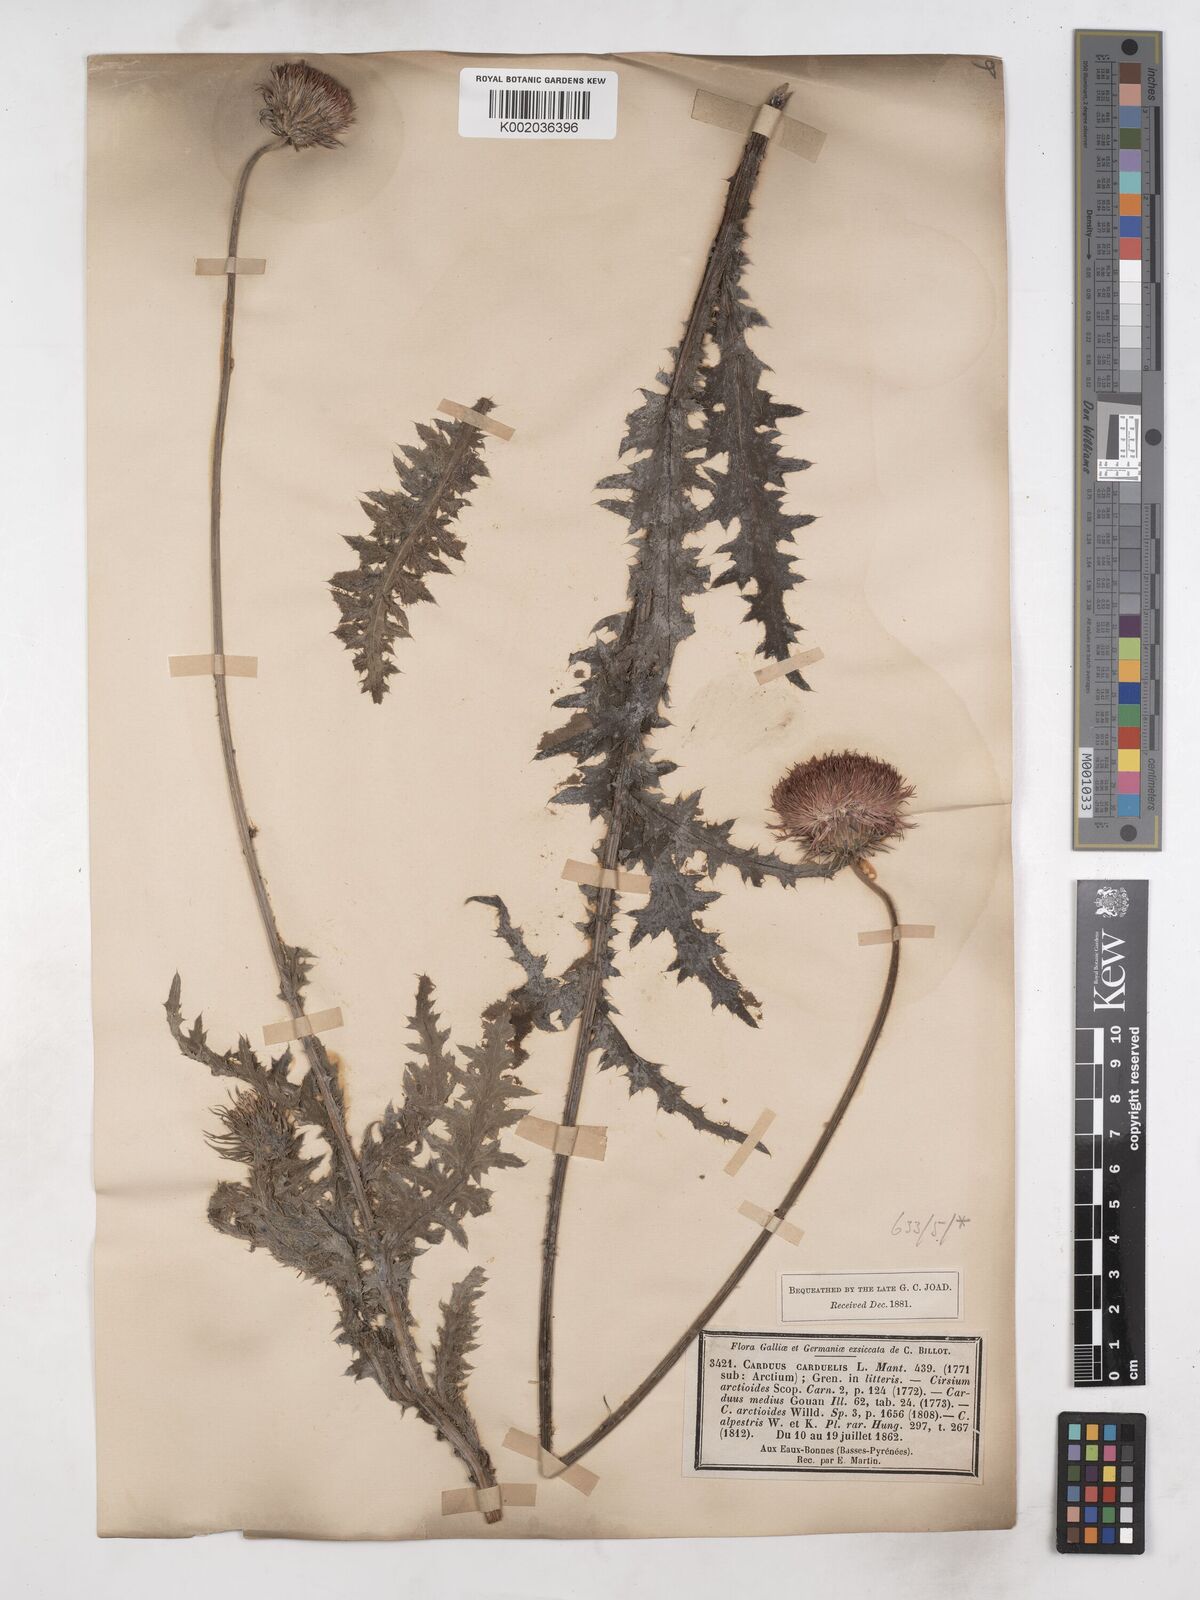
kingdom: Plantae
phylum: Tracheophyta
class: Magnoliopsida
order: Asterales
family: Asteraceae
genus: Carduus
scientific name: Carduus defloratus
